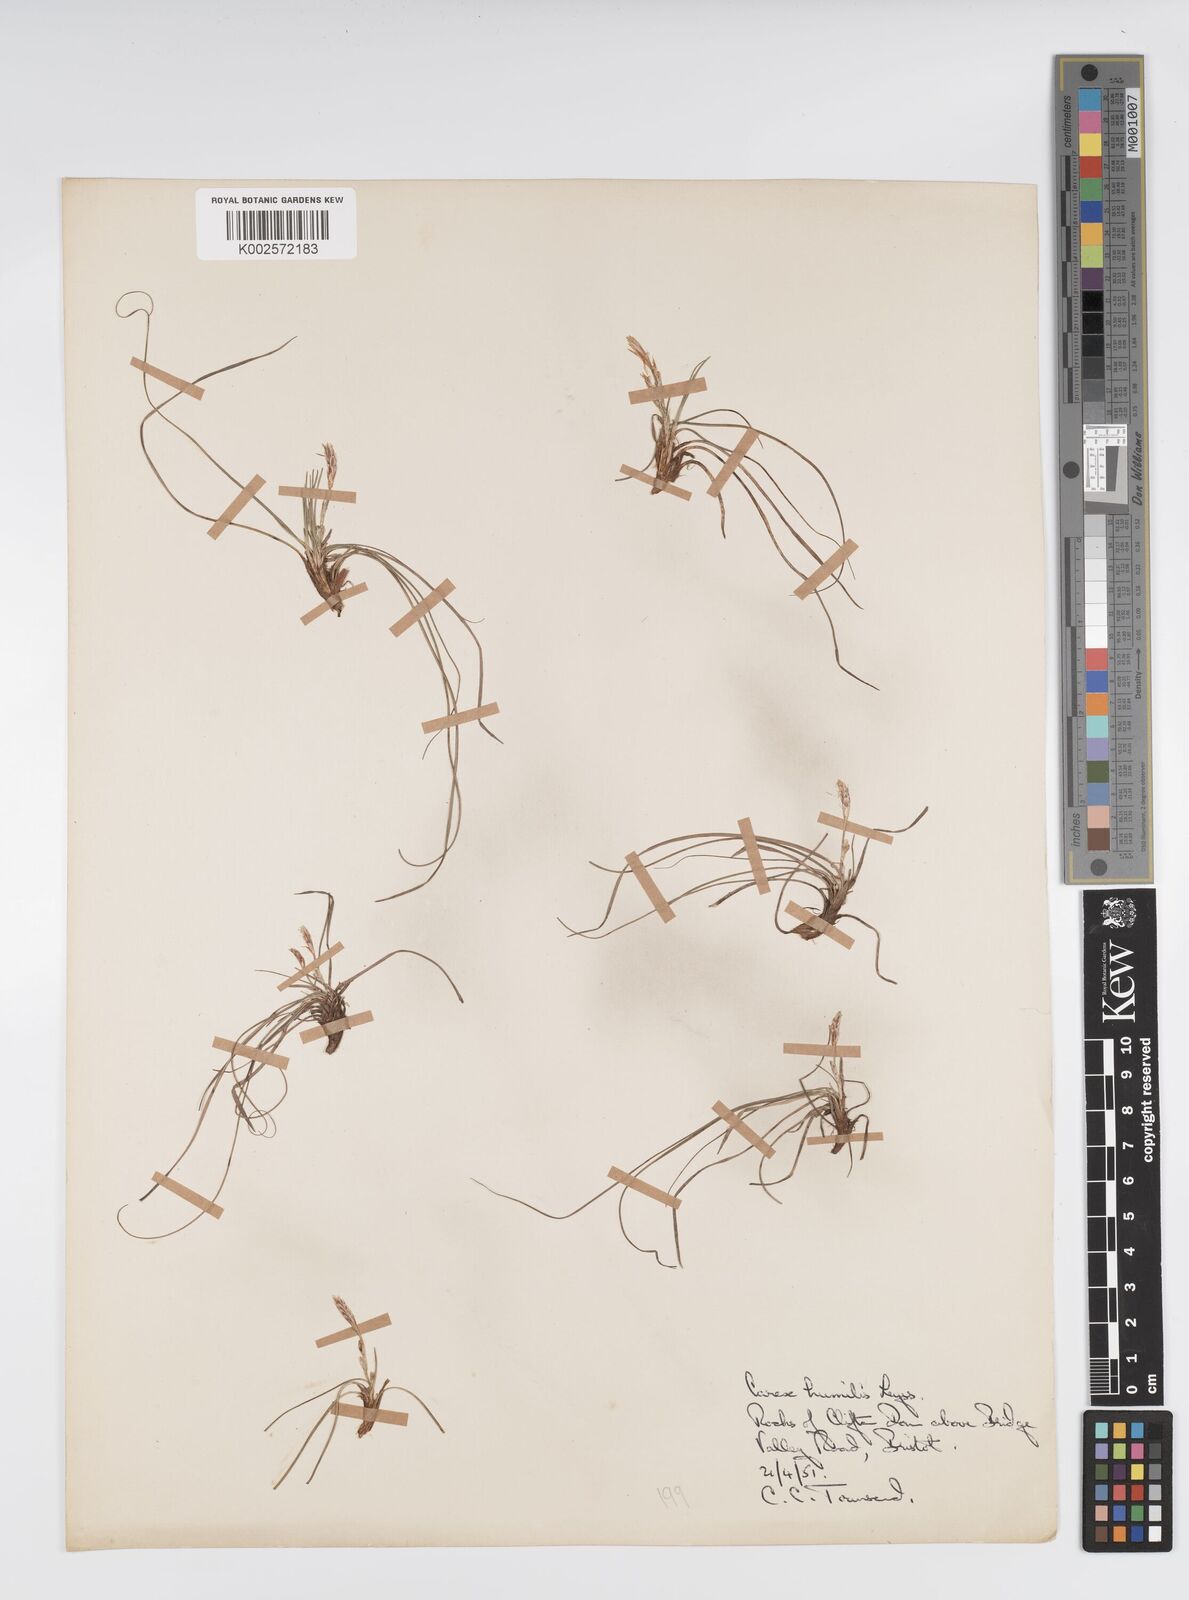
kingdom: Plantae
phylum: Tracheophyta
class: Liliopsida
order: Poales
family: Cyperaceae
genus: Carex
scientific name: Carex humilis
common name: Dwarf sedge
